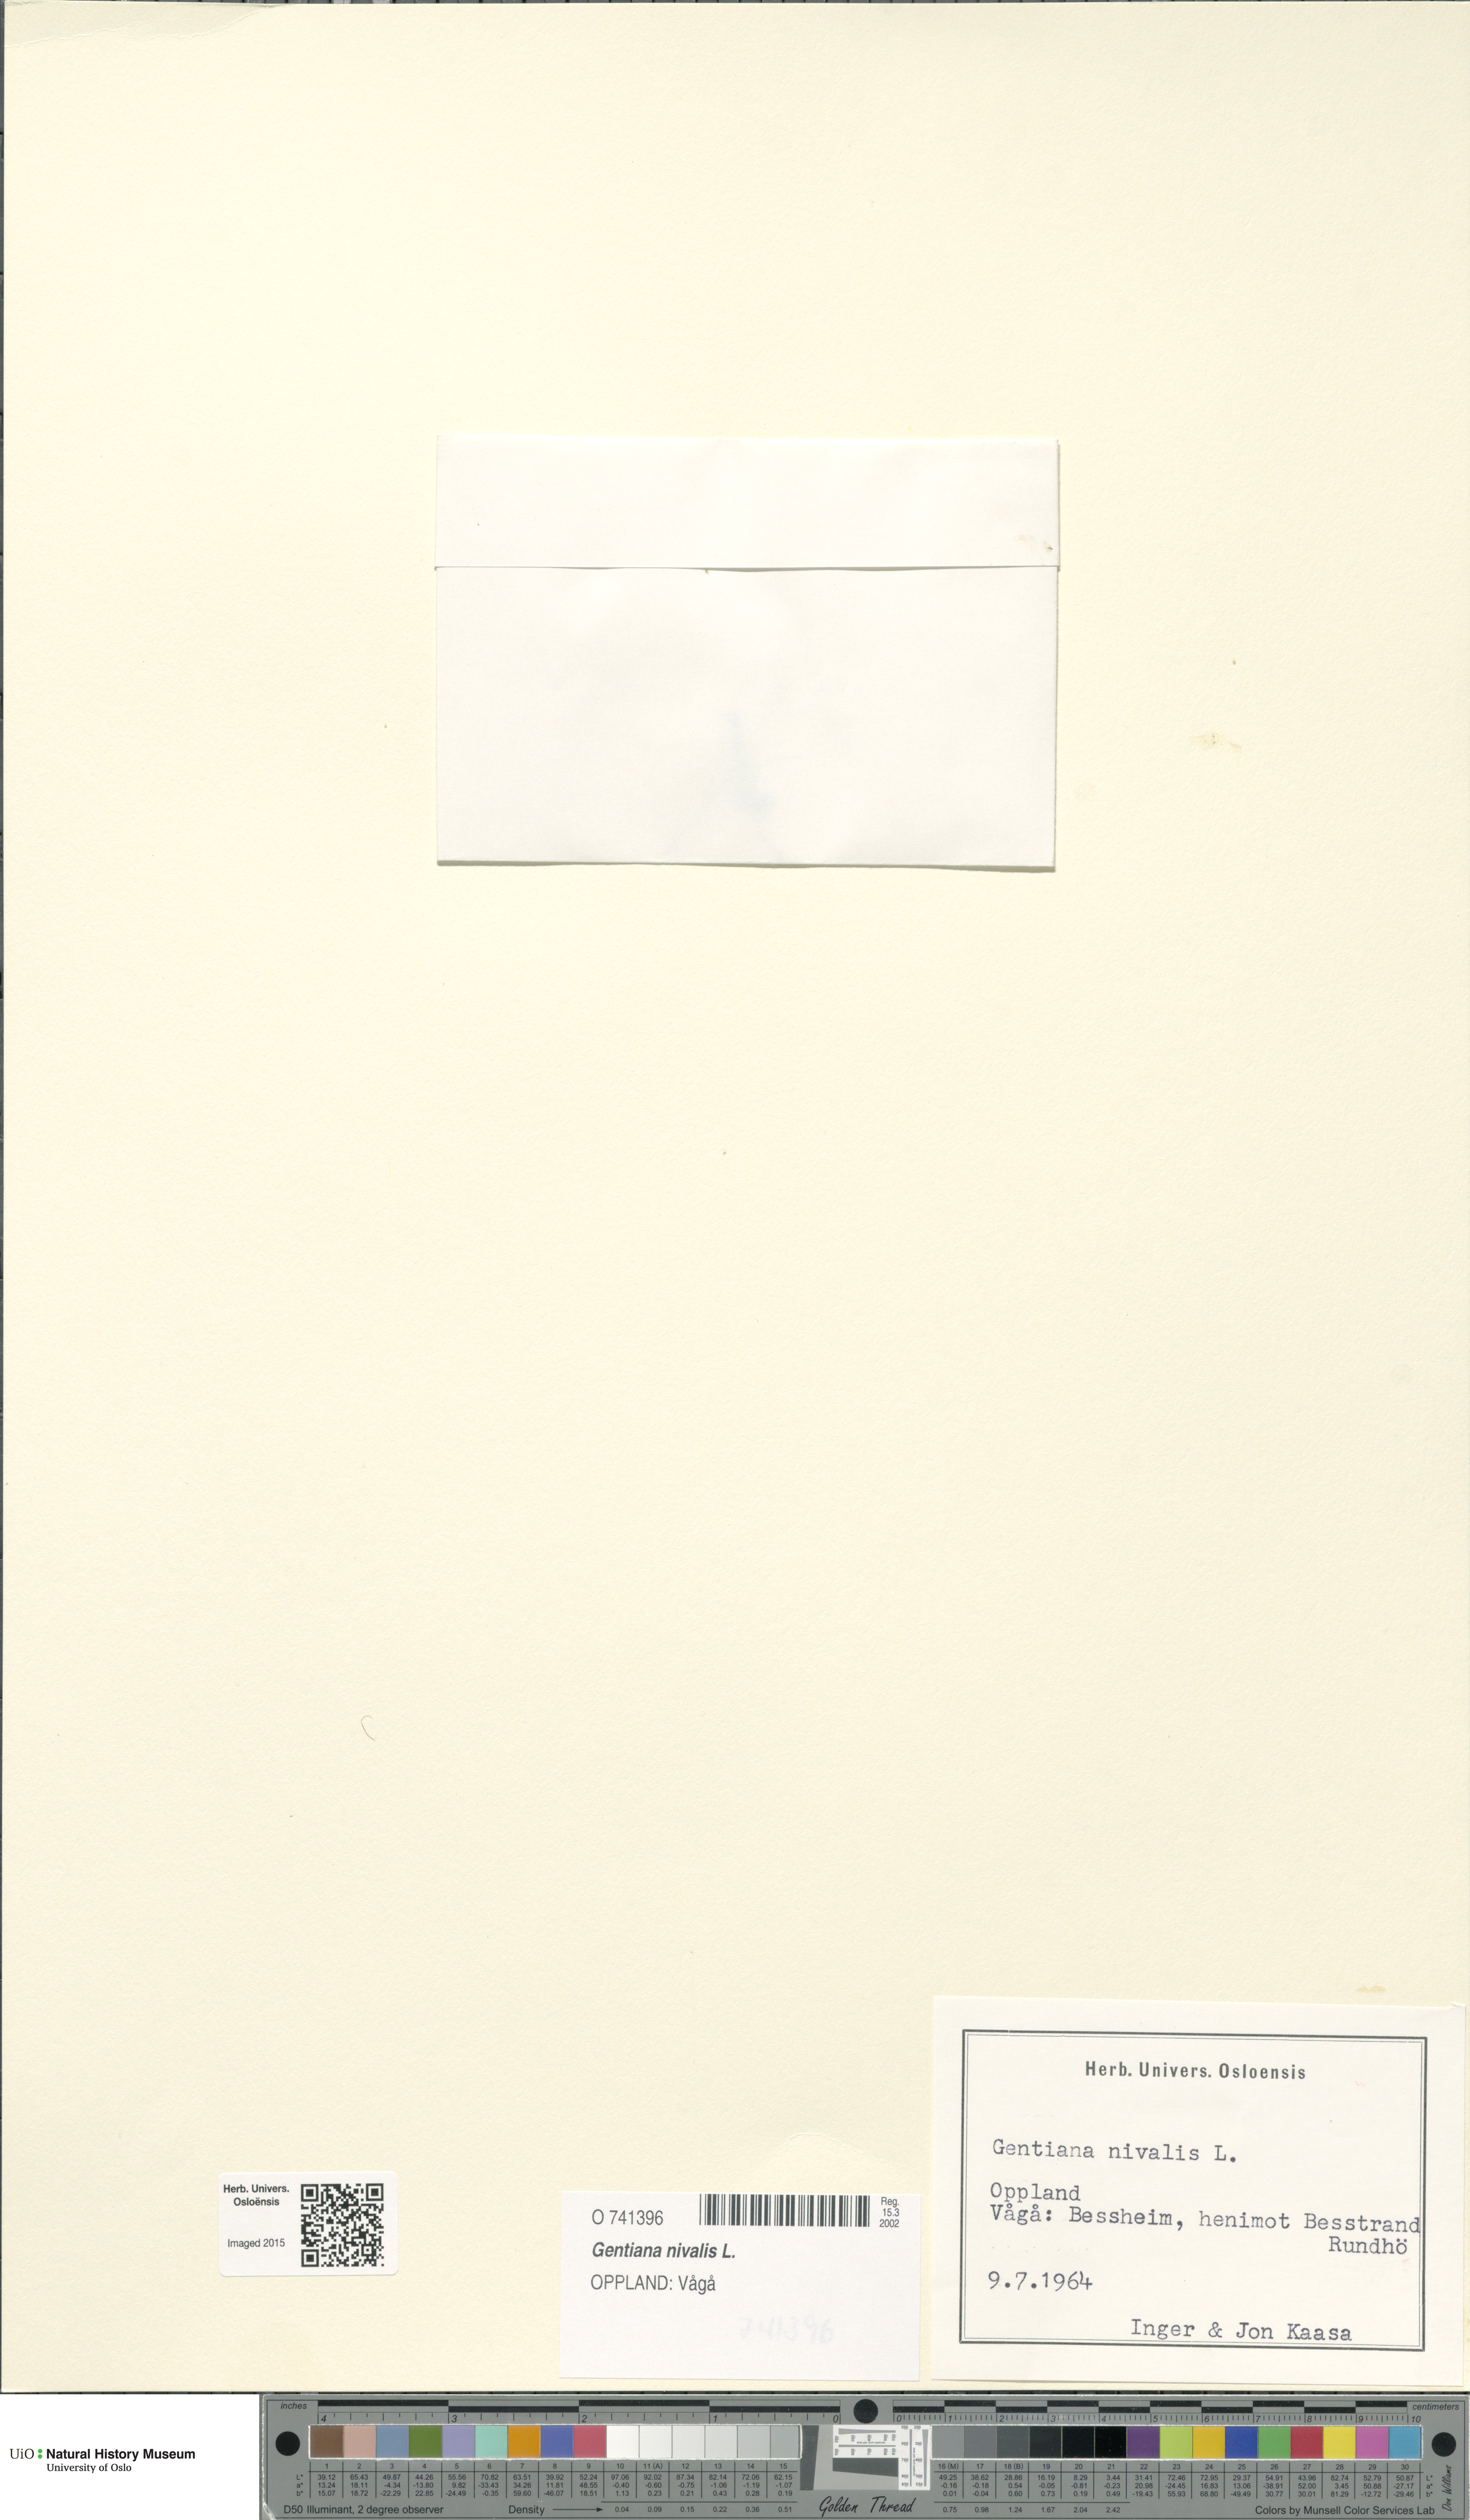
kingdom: Plantae
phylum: Tracheophyta
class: Magnoliopsida
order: Gentianales
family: Gentianaceae
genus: Gentiana
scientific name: Gentiana nivalis
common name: Alpine gentian
